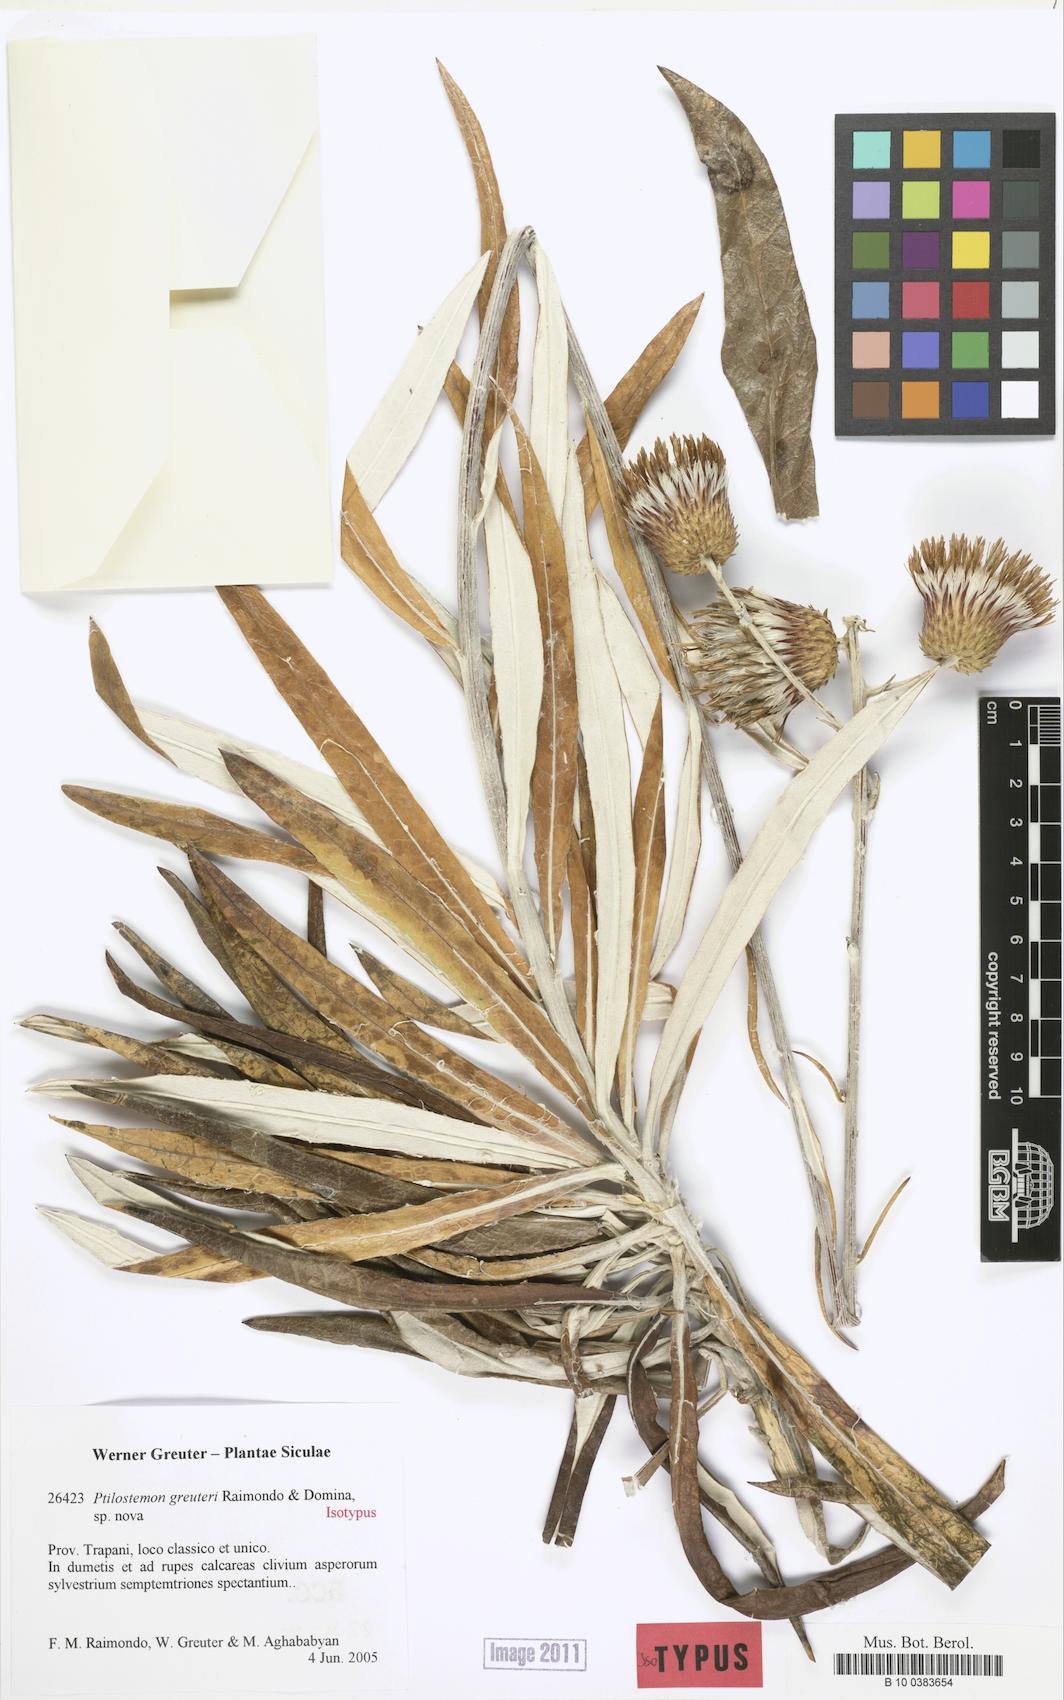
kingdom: Plantae
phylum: Tracheophyta
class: Magnoliopsida
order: Asterales
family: Asteraceae
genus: Ptilostemon
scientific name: Ptilostemon greuteri
